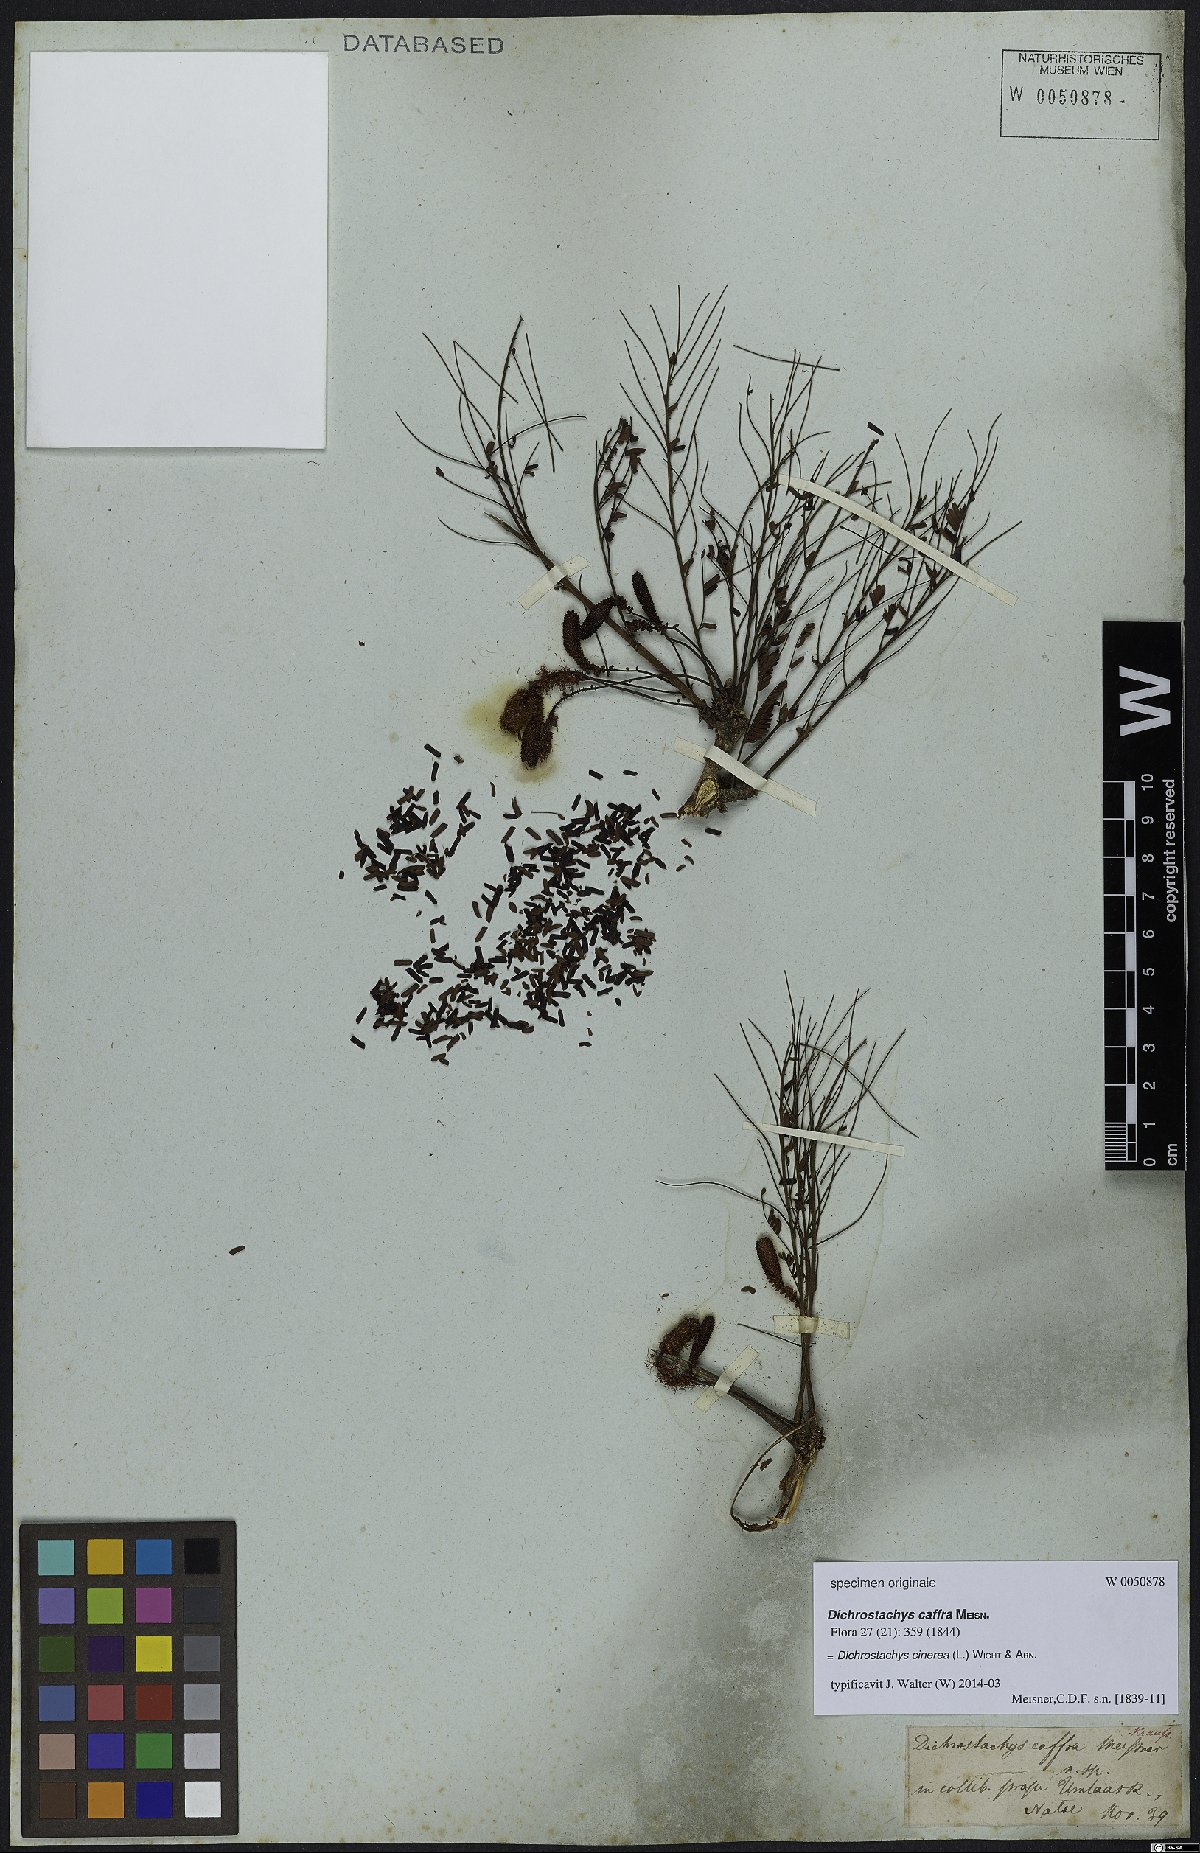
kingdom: Plantae
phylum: Tracheophyta
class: Magnoliopsida
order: Fabales
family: Fabaceae
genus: Dichrostachys
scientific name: Dichrostachys cinerea
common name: Sicklebush
